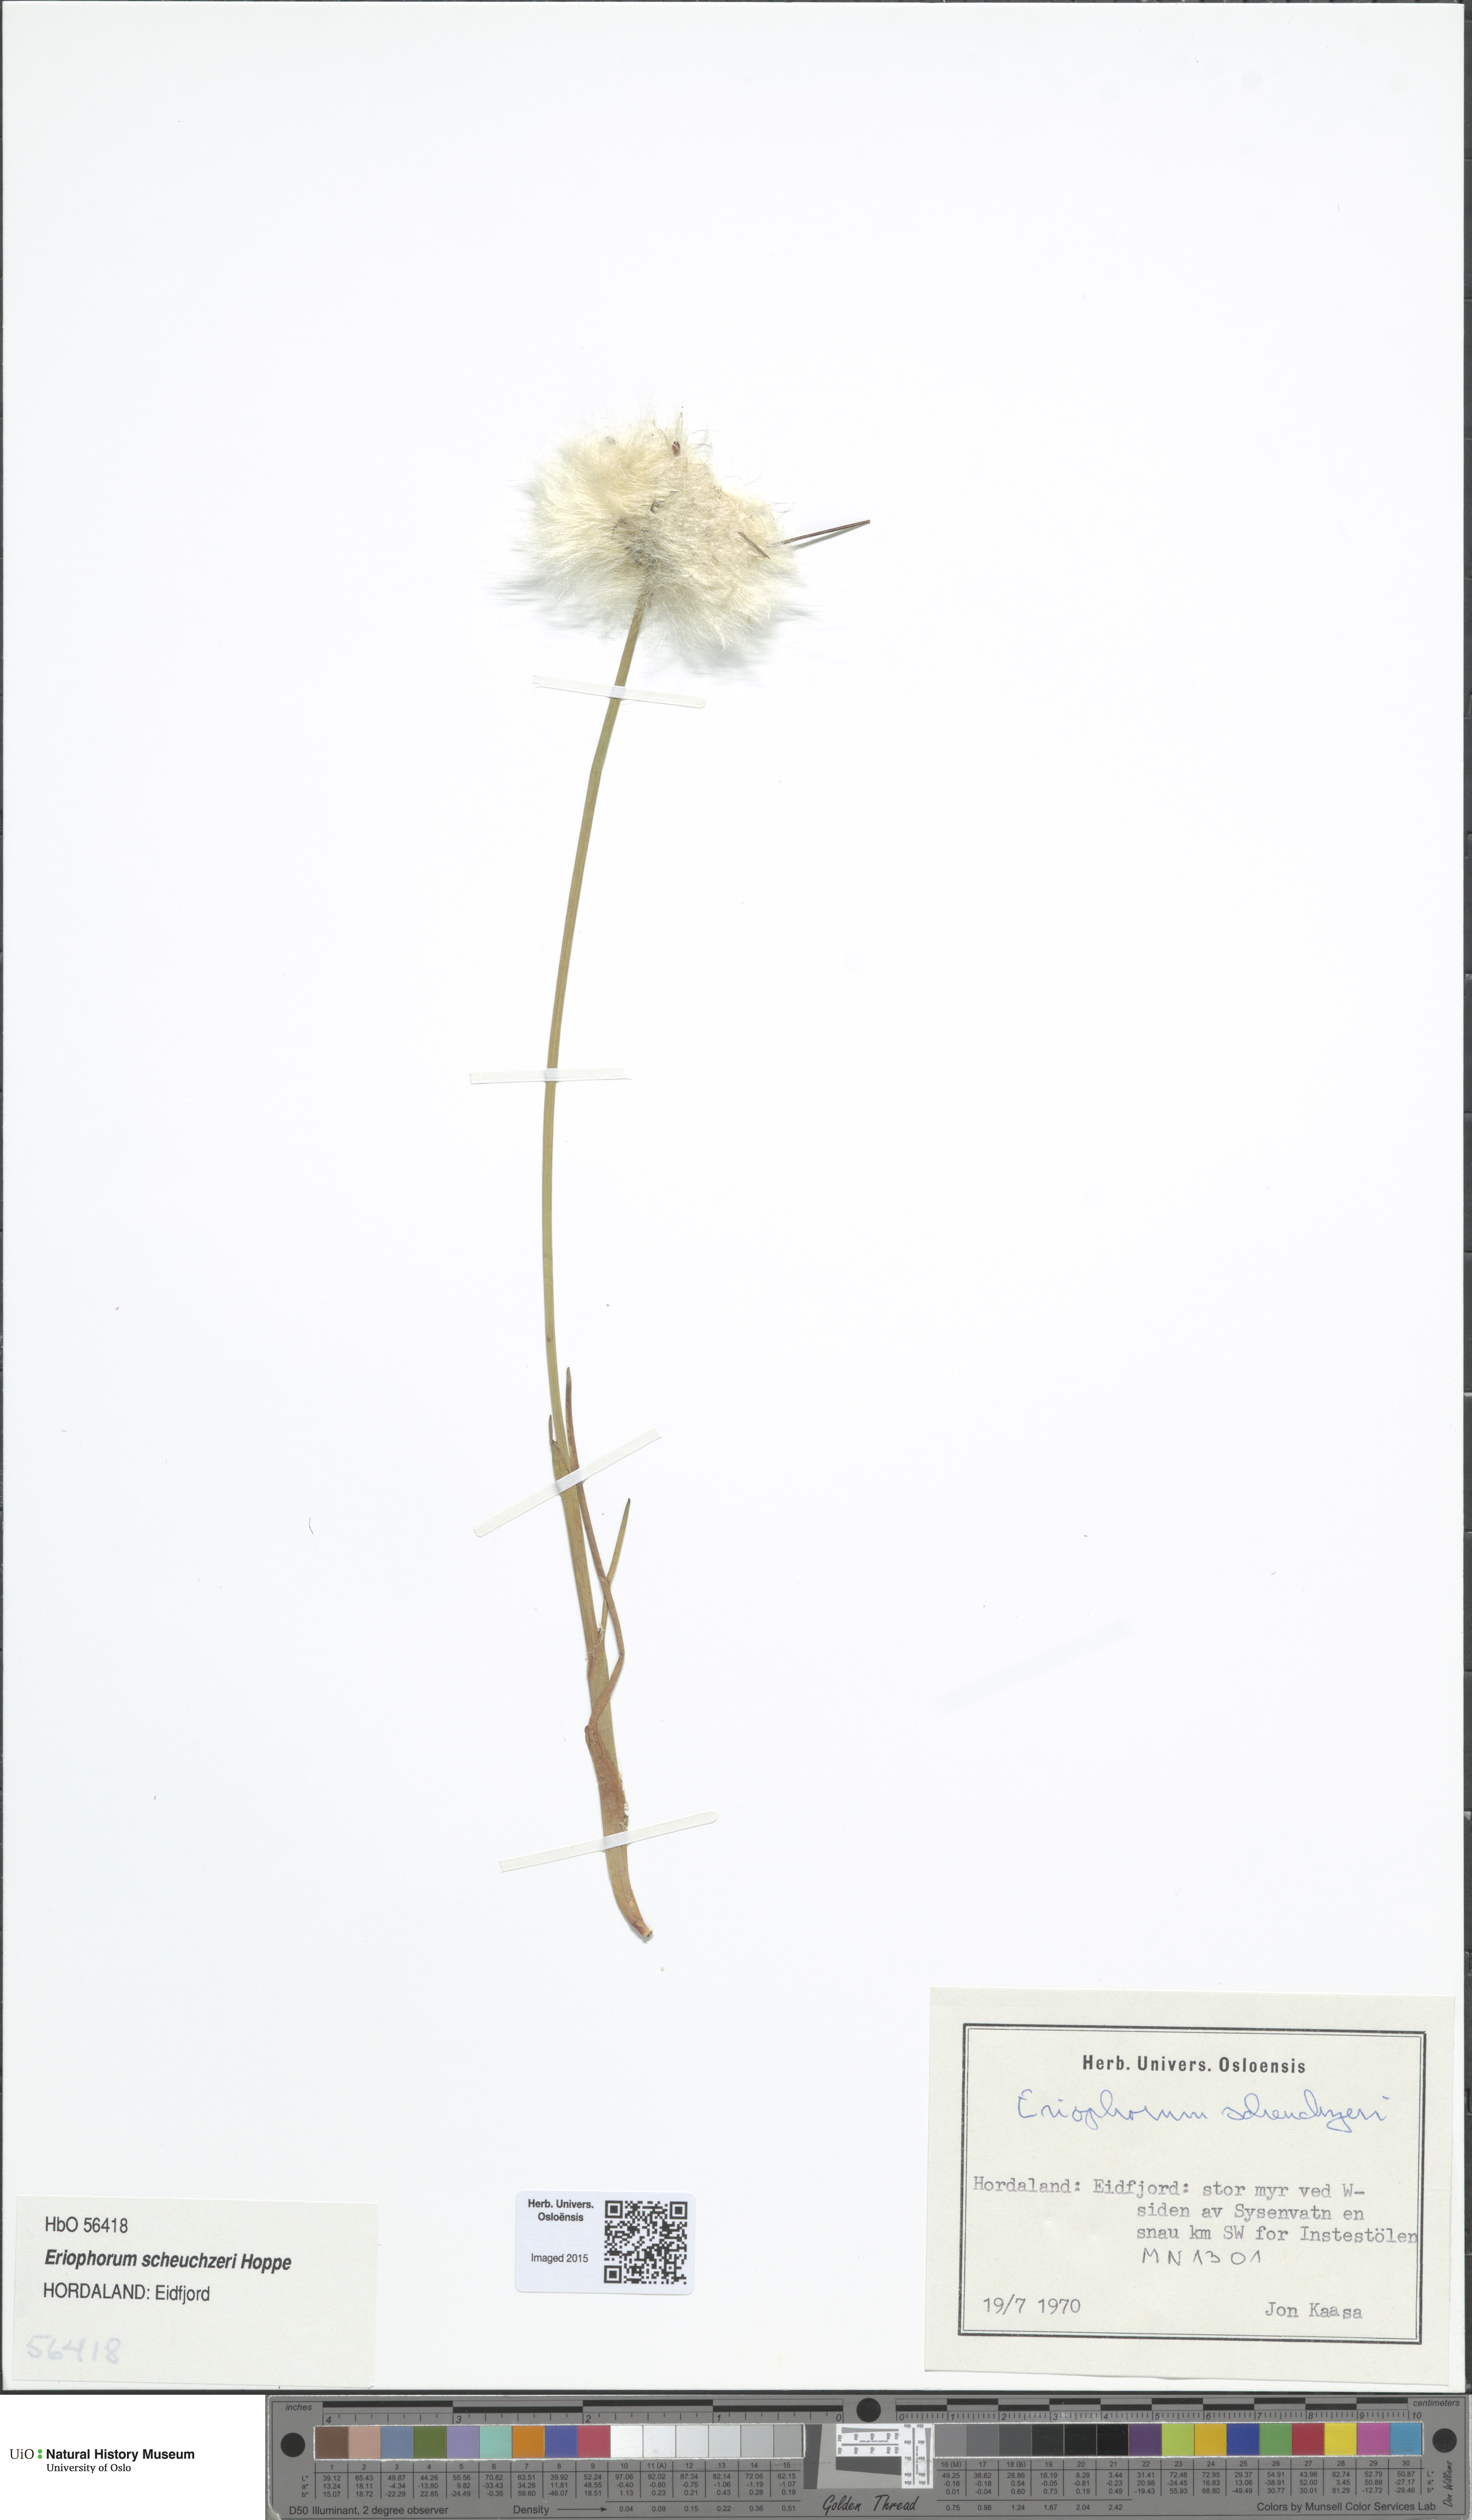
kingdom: Plantae
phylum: Tracheophyta
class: Liliopsida
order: Poales
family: Cyperaceae
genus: Eriophorum
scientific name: Eriophorum scheuchzeri
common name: Scheuchzer's cottongrass
